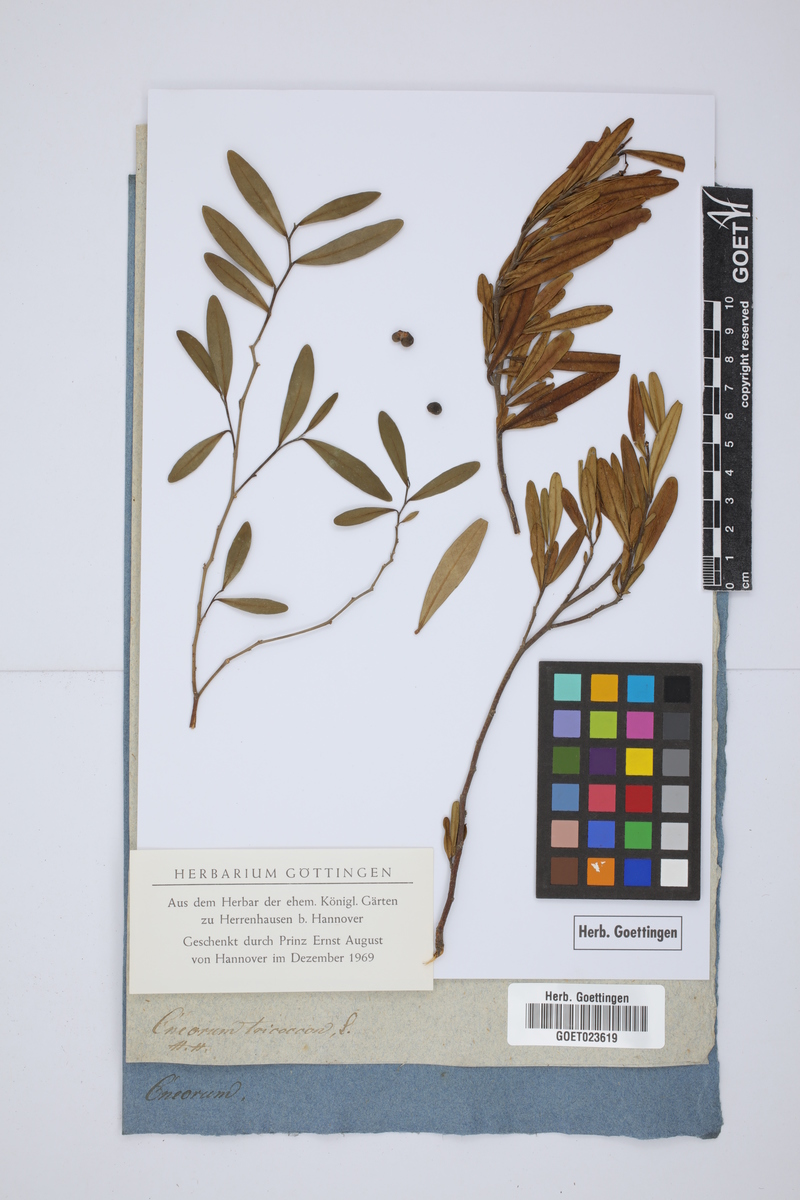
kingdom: Plantae
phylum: Tracheophyta
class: Magnoliopsida
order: Sapindales
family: Rutaceae
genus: Cneorum
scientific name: Cneorum tricoccon
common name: Spurge olive
